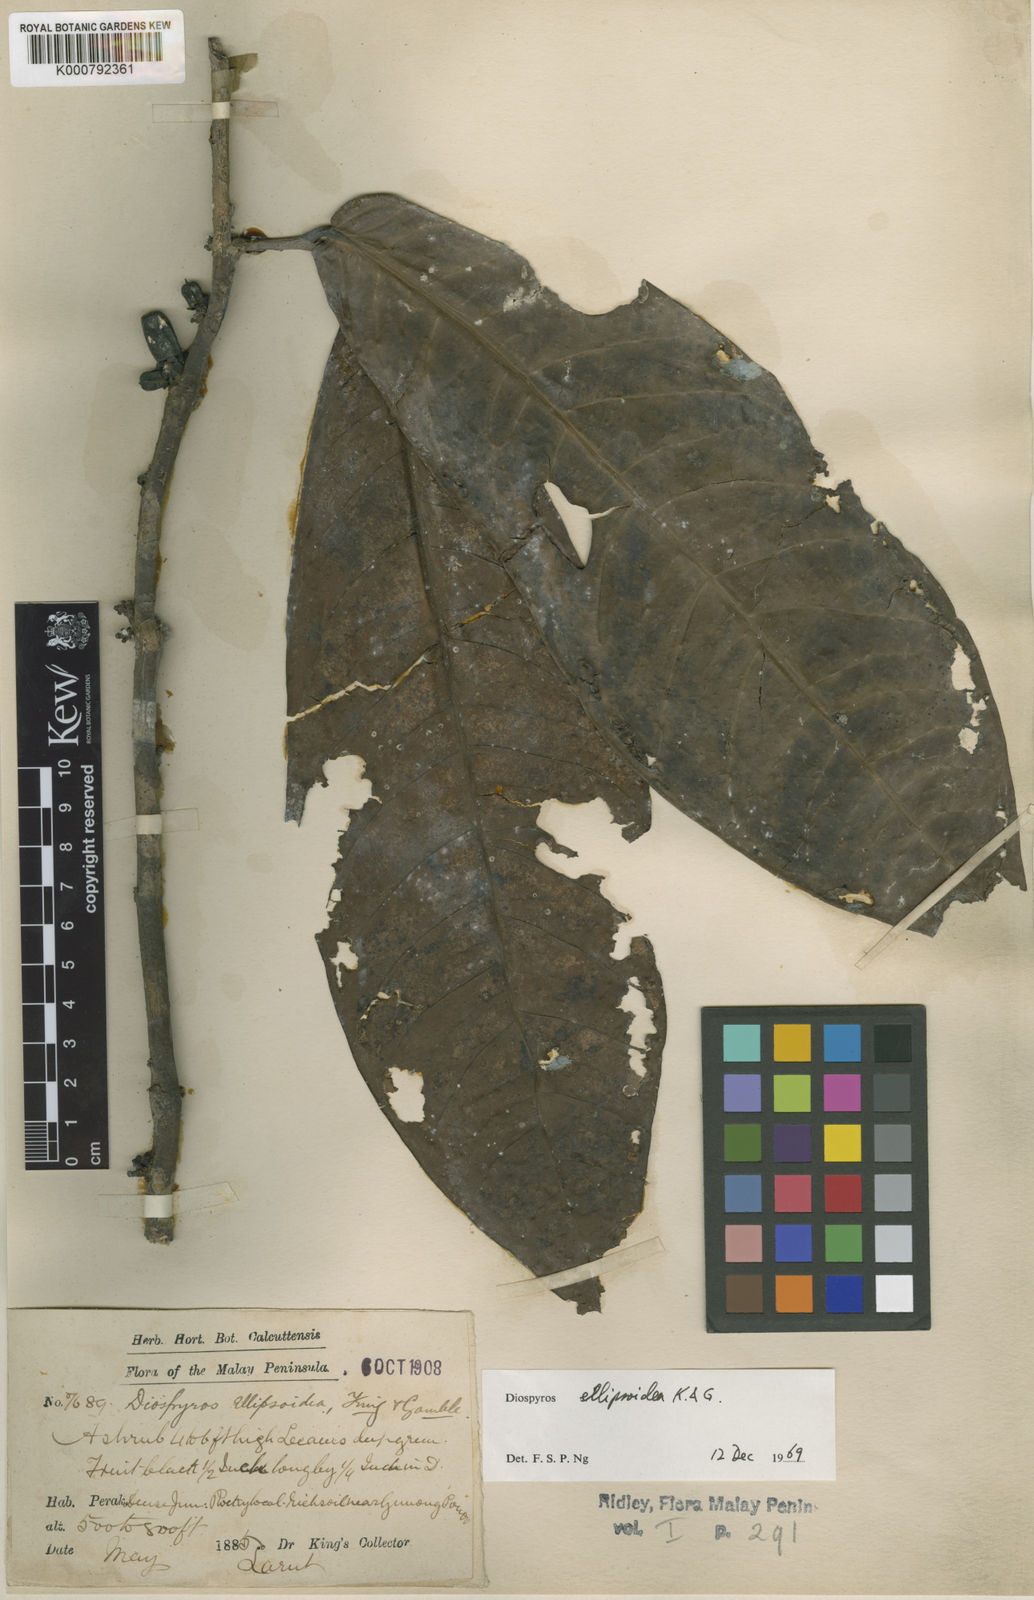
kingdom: Plantae
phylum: Tracheophyta
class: Magnoliopsida
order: Ericales
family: Ebenaceae
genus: Diospyros
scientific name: Diospyros ellipsoidea
